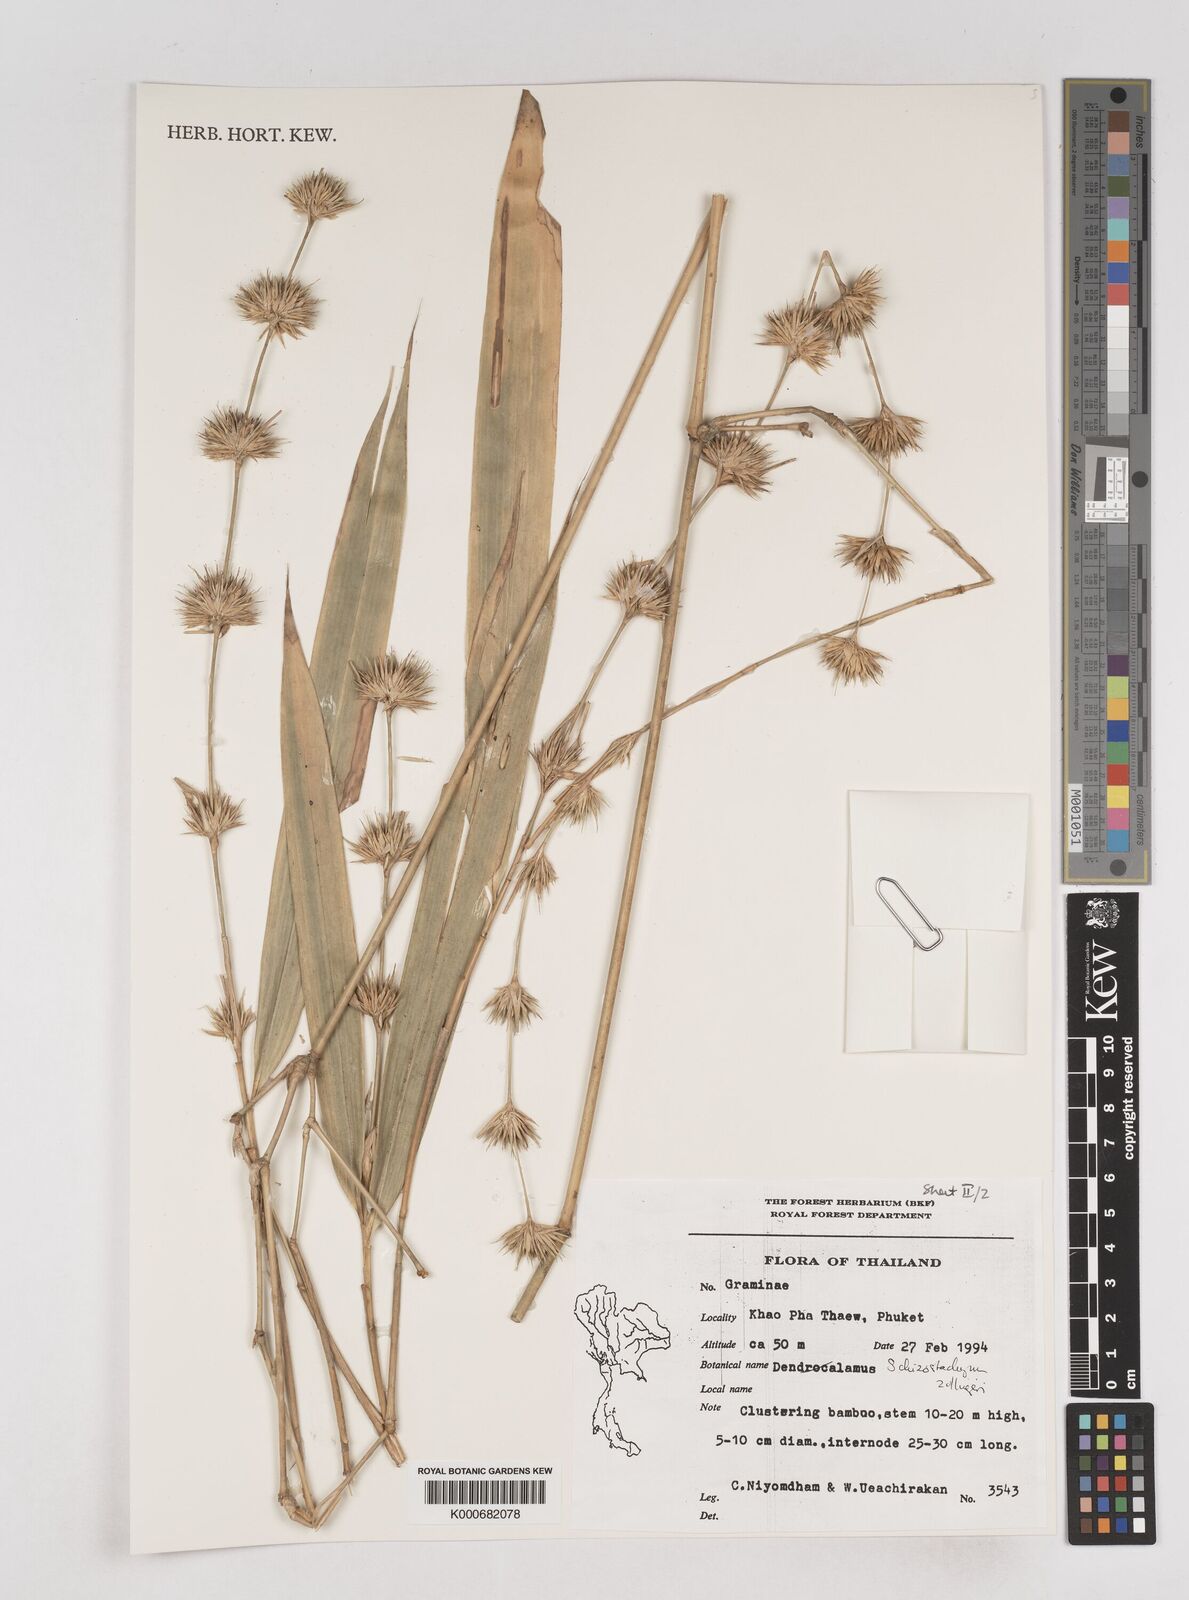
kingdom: Plantae
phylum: Tracheophyta
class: Liliopsida
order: Poales
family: Poaceae
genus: Schizostachyum
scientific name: Schizostachyum zollingeri
